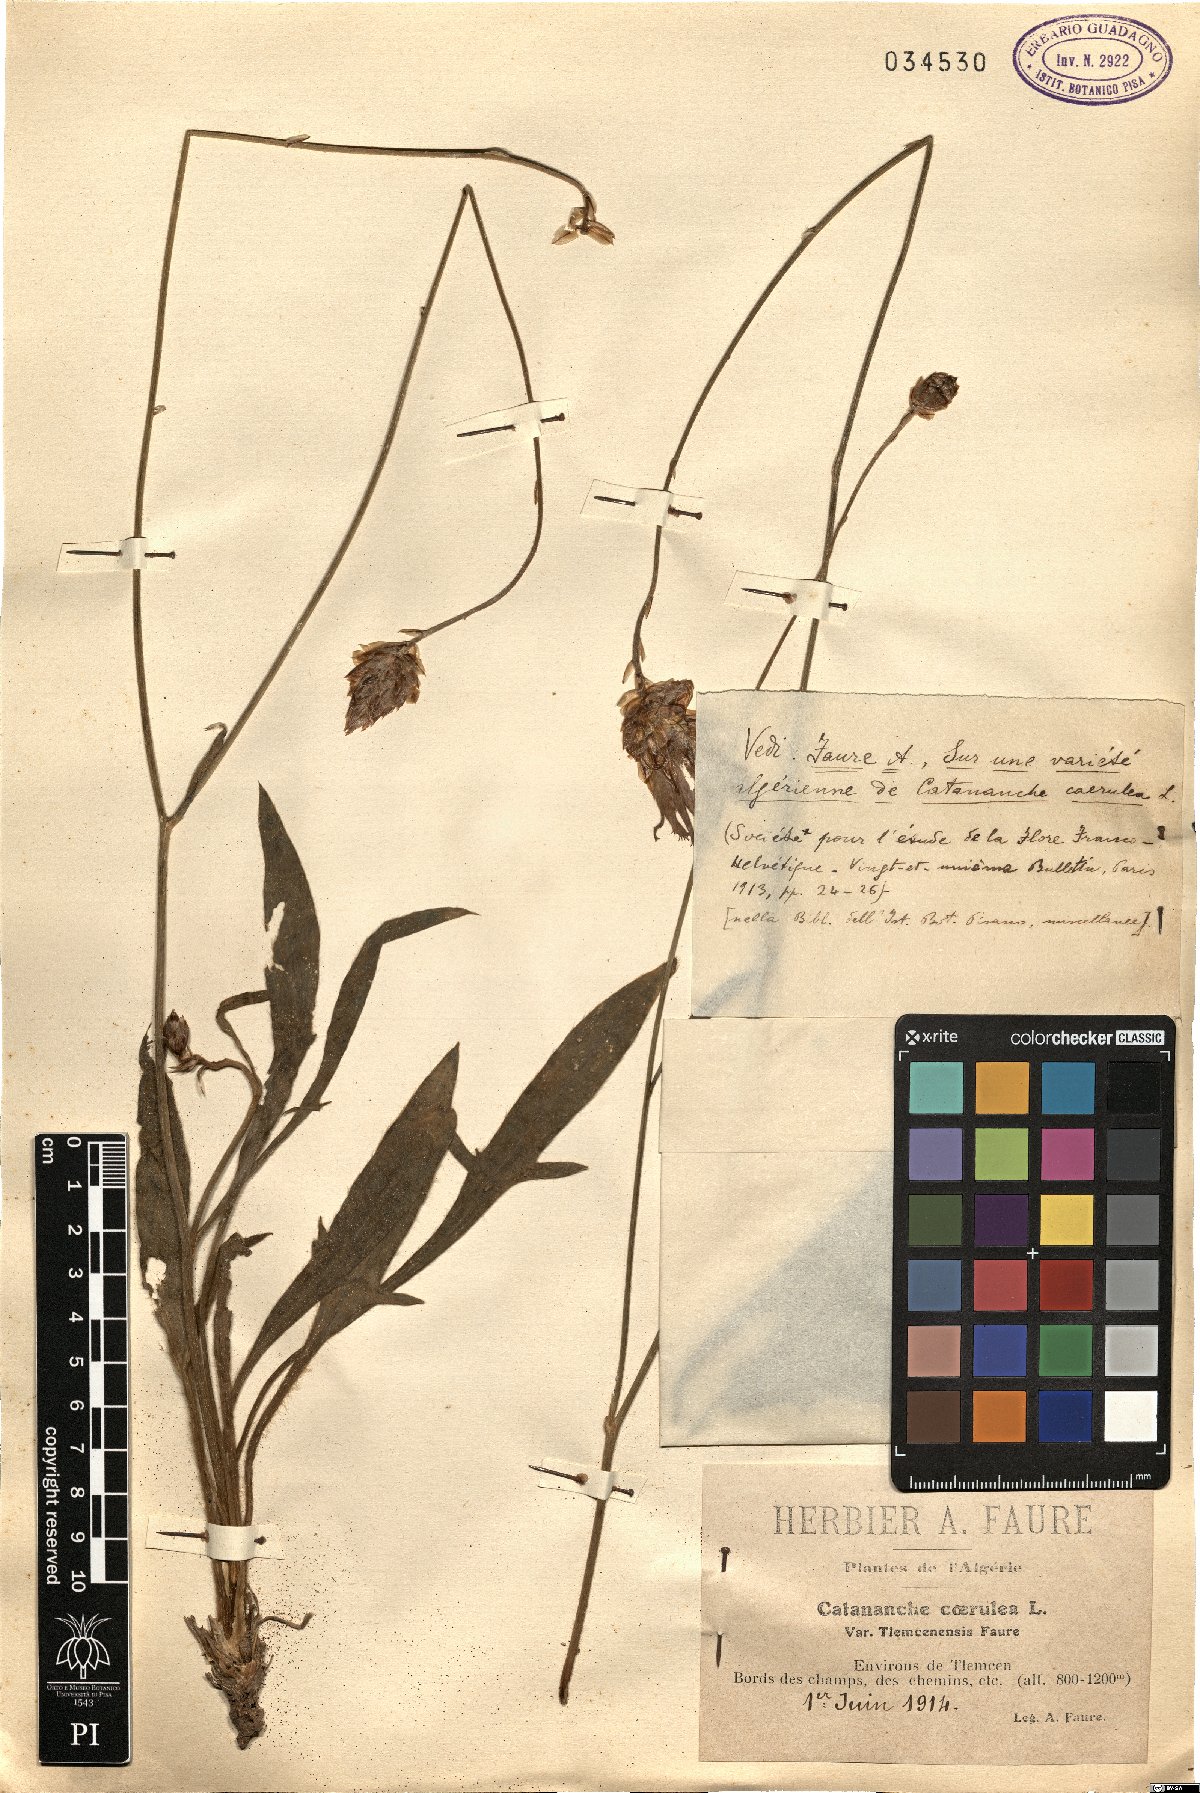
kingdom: Plantae
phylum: Tracheophyta
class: Magnoliopsida
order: Asterales
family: Asteraceae
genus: Catananche
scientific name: Catananche caerulea
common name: Blue cupidone
